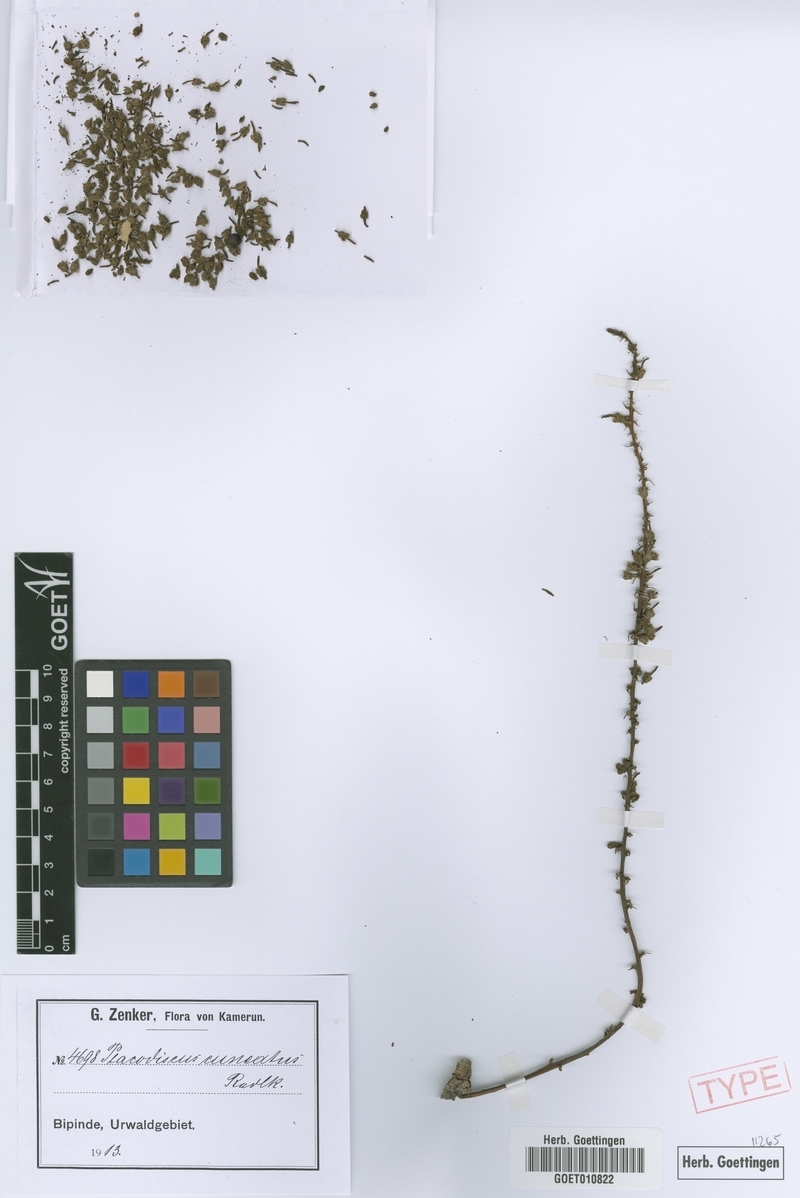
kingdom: Plantae
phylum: Tracheophyta
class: Magnoliopsida
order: Sapindales
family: Sapindaceae
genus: Placodiscus
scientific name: Placodiscus angustifolius
